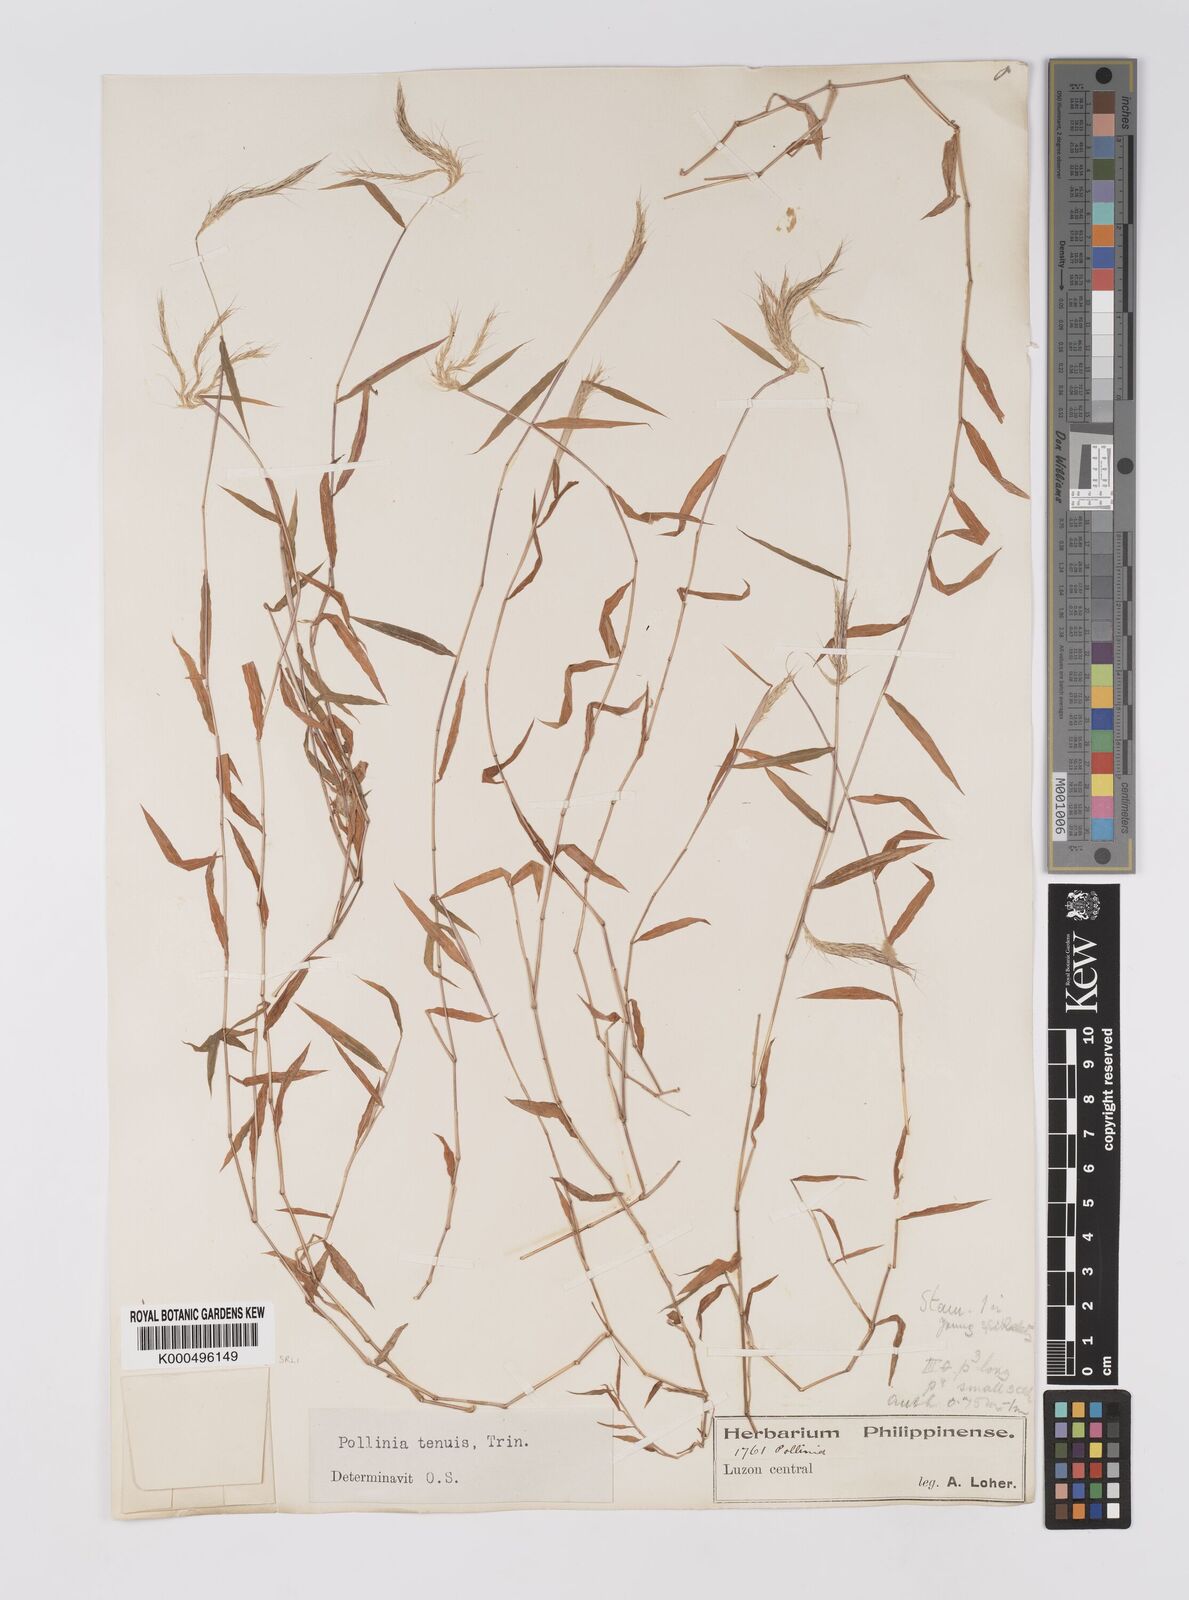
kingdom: Plantae
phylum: Tracheophyta
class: Liliopsida
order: Poales
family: Poaceae
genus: Microstegium
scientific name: Microstegium tenue
